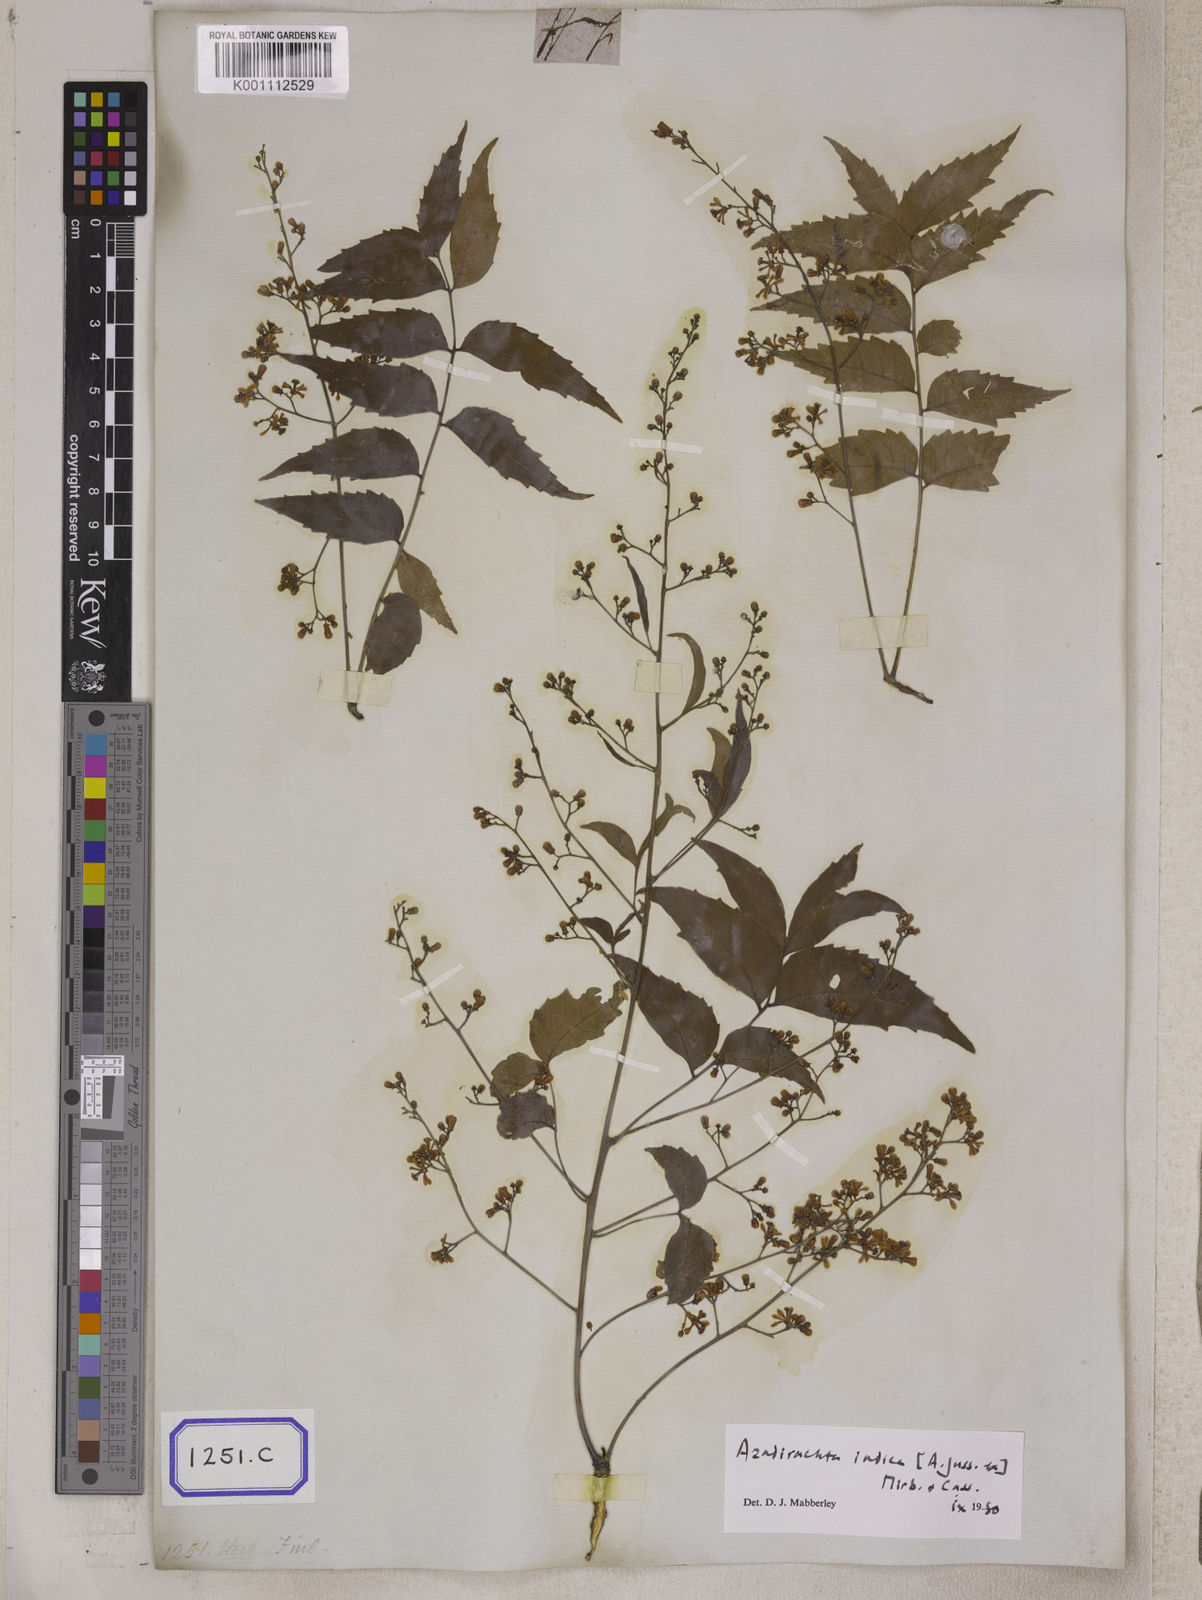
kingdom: Plantae
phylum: Tracheophyta
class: Magnoliopsida
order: Sapindales
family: Meliaceae
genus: Azadirachta
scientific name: Azadirachta indica
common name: Neem
